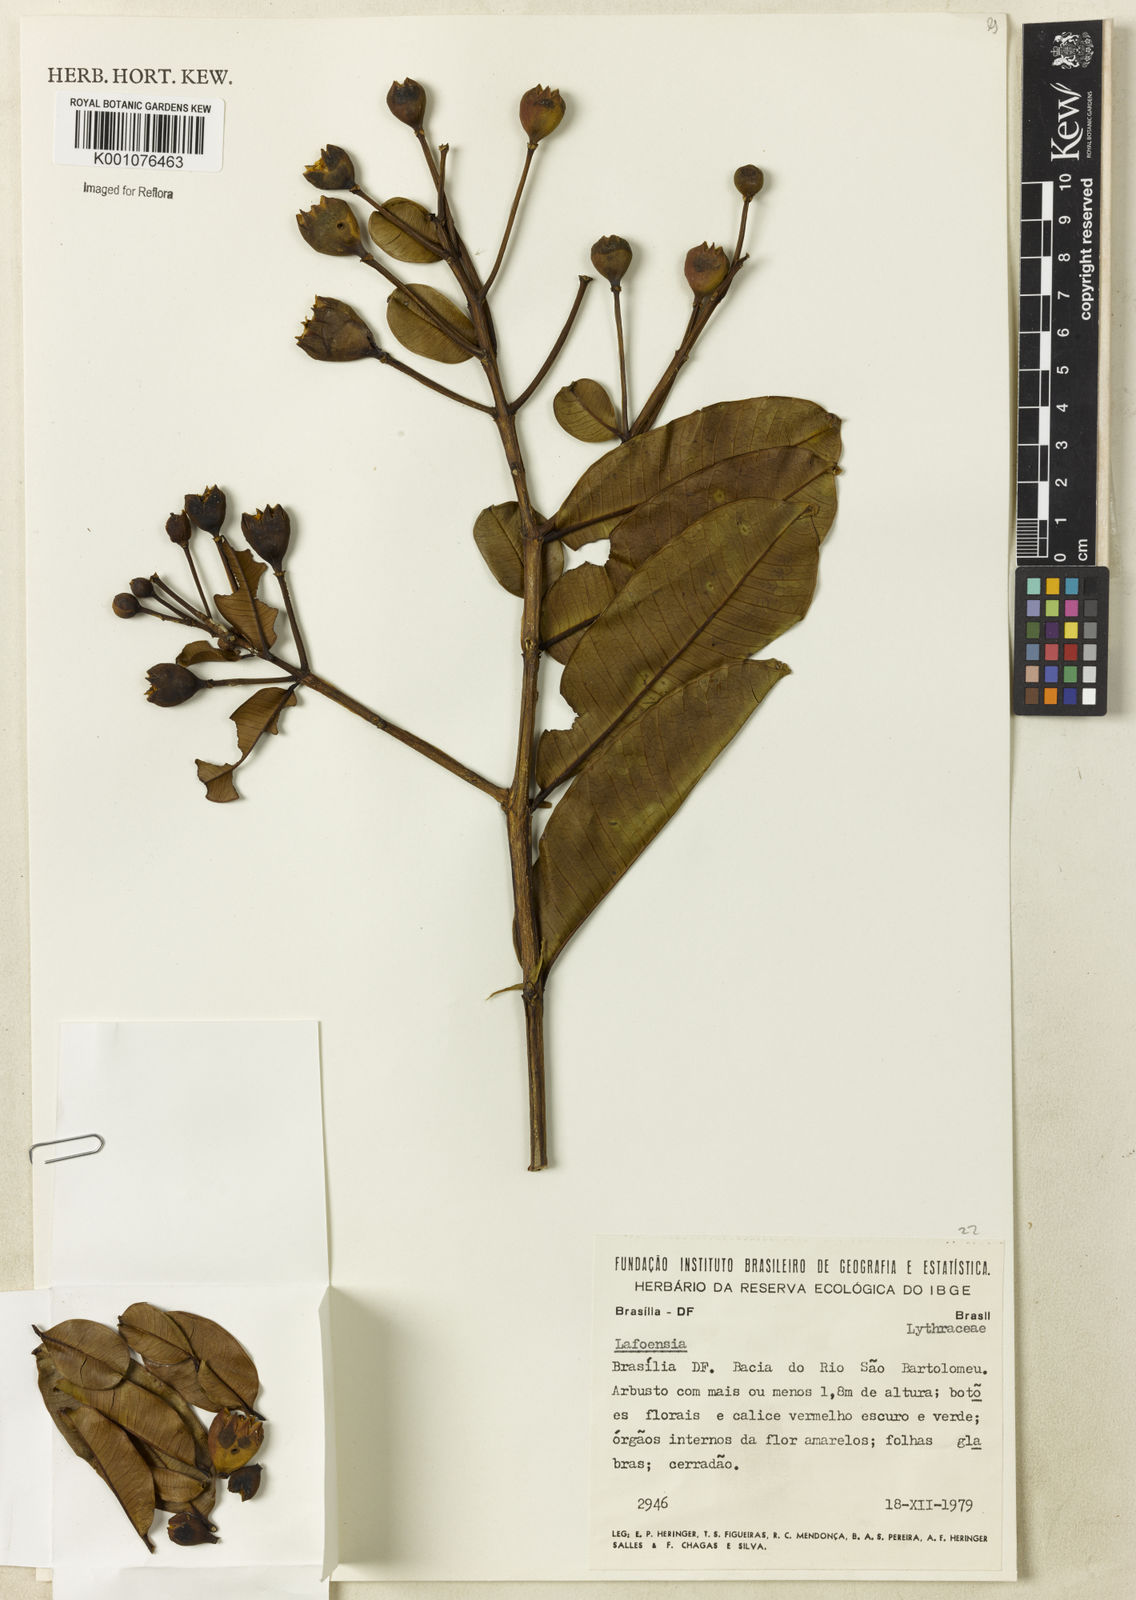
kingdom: Plantae
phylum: Tracheophyta
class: Magnoliopsida
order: Myrtales
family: Lythraceae
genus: Lafoensia
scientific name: Lafoensia
